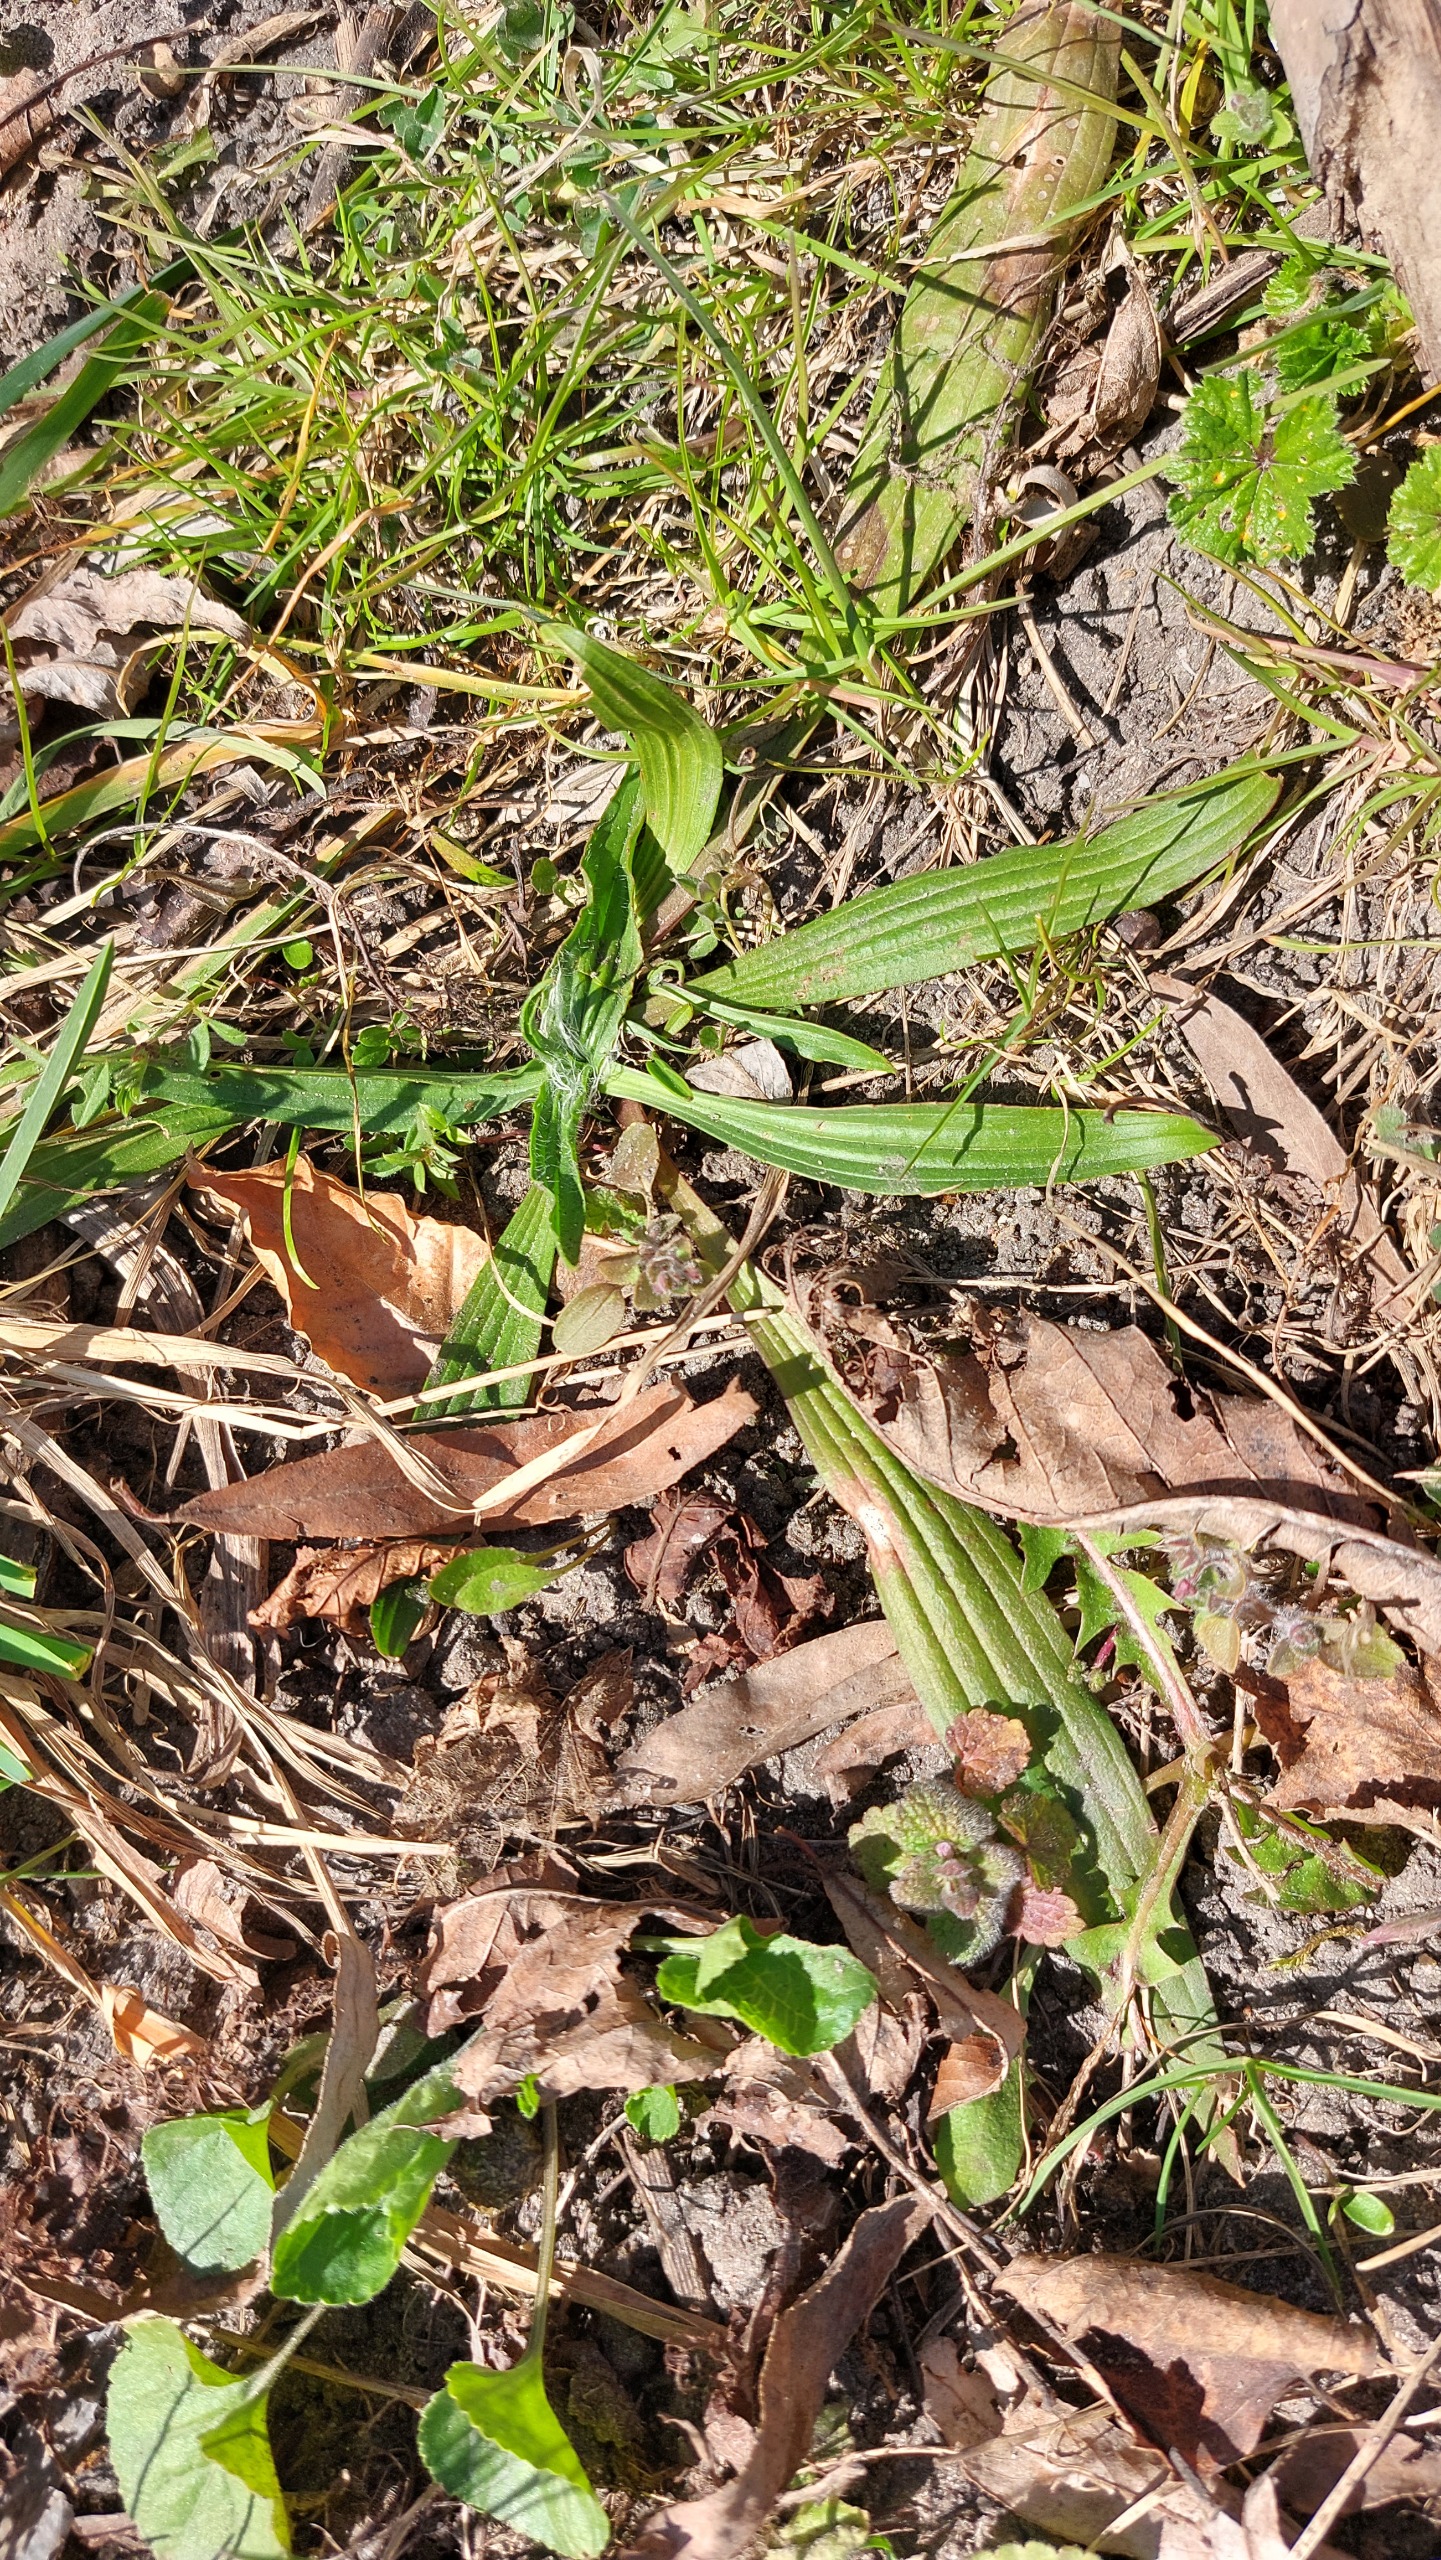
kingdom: Plantae
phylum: Tracheophyta
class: Magnoliopsida
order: Lamiales
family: Plantaginaceae
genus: Plantago
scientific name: Plantago lanceolata
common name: Lancet-vejbred
